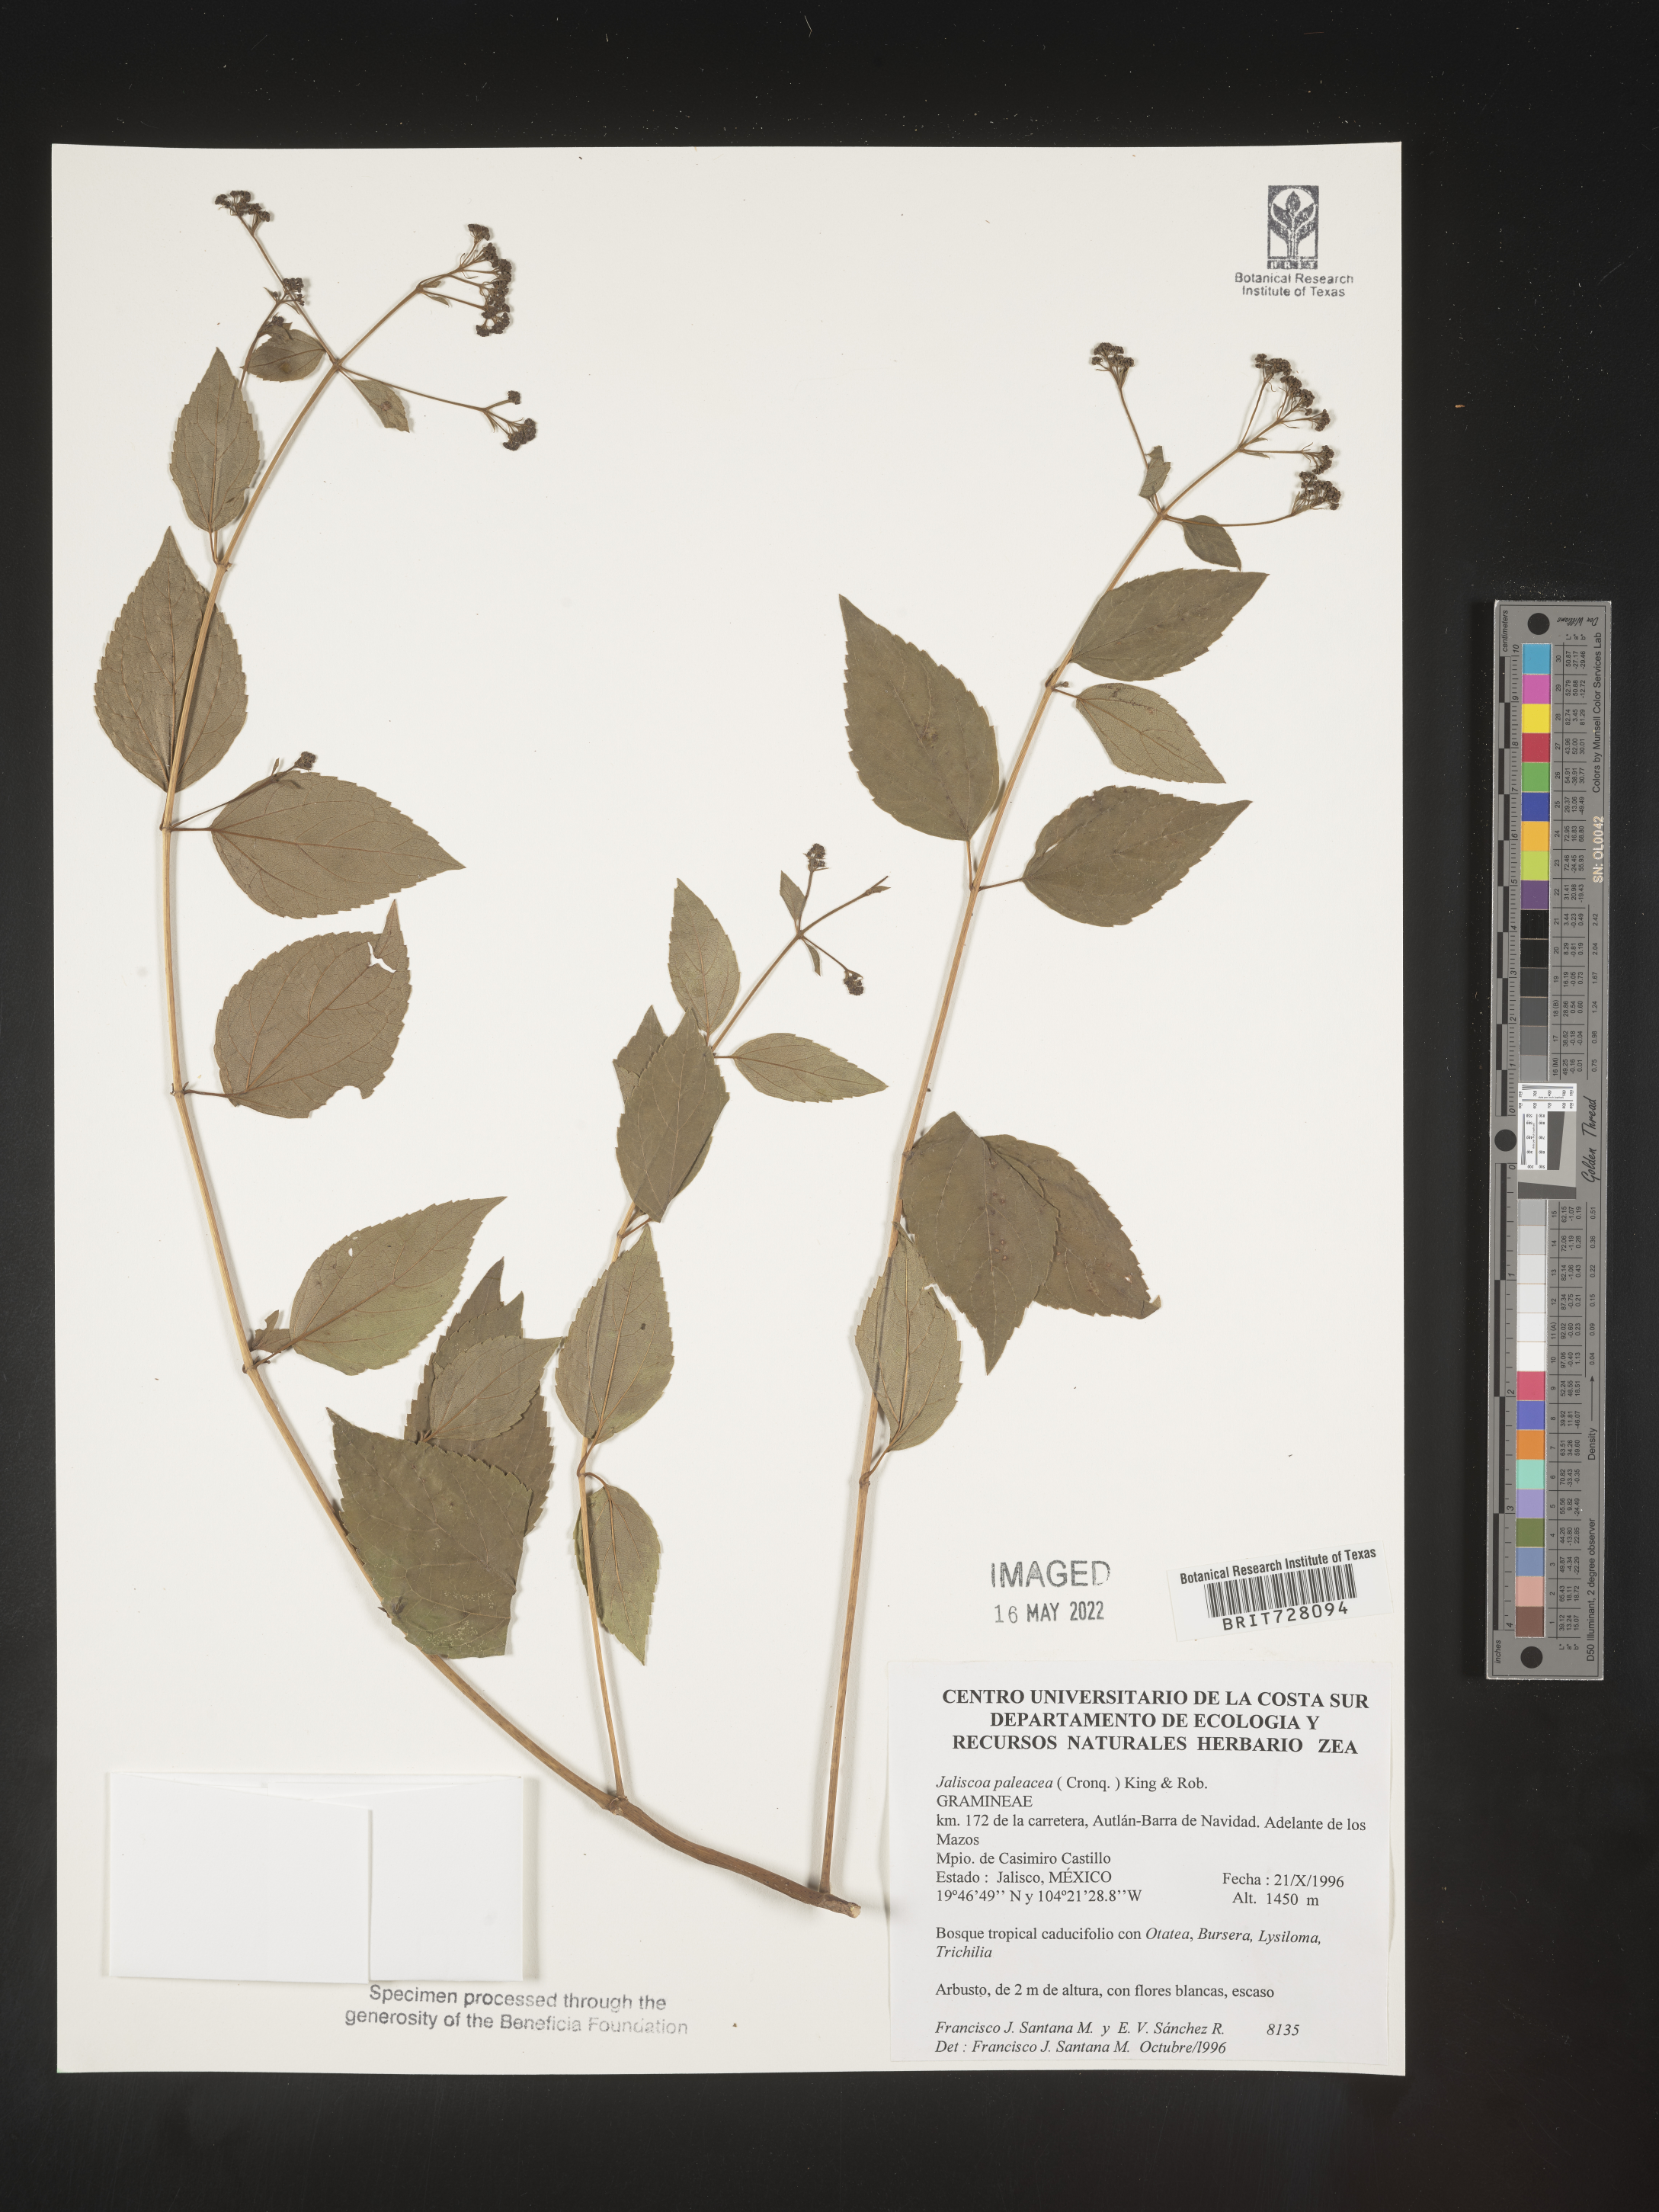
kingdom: Plantae
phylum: Tracheophyta
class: Magnoliopsida
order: Asterales
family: Asteraceae
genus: Jaliscoa
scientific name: Jaliscoa
